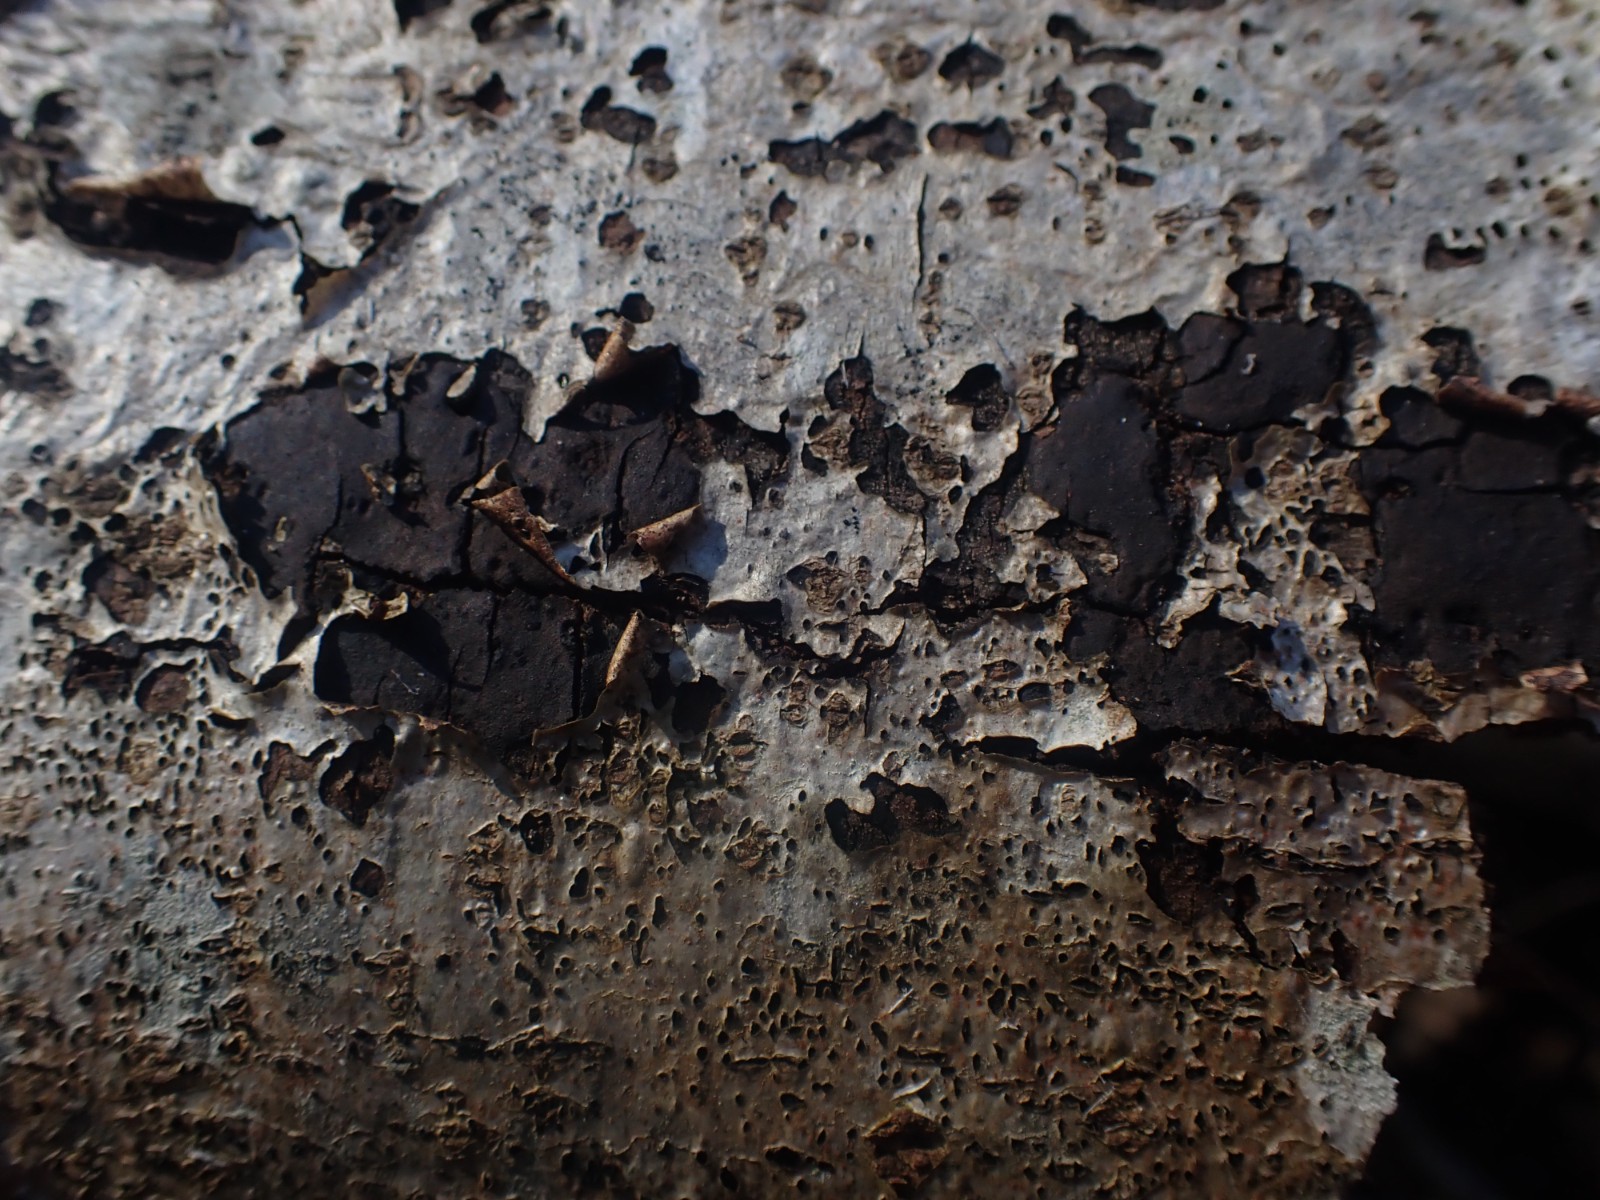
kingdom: Fungi
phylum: Ascomycota
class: Sordariomycetes
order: Xylariales
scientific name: Xylariales
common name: stødsvampordenen
